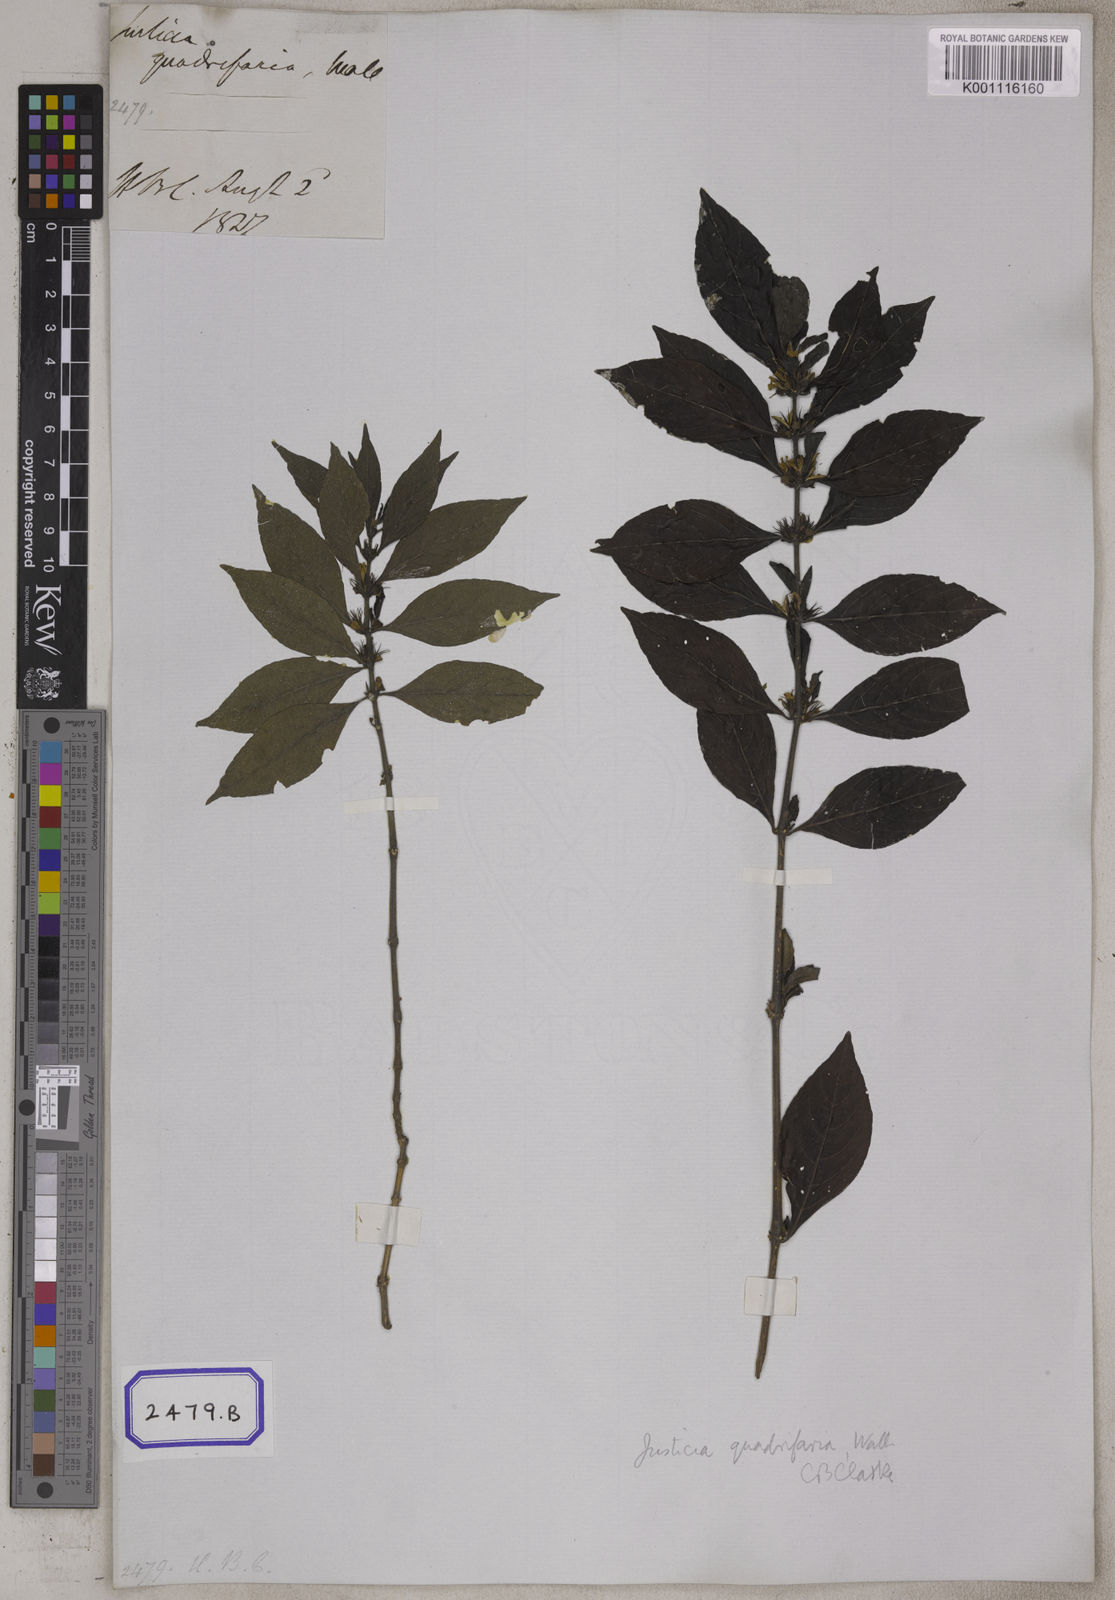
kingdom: Plantae
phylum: Tracheophyta
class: Magnoliopsida
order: Lamiales
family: Acanthaceae
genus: Justicia
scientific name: Justicia
